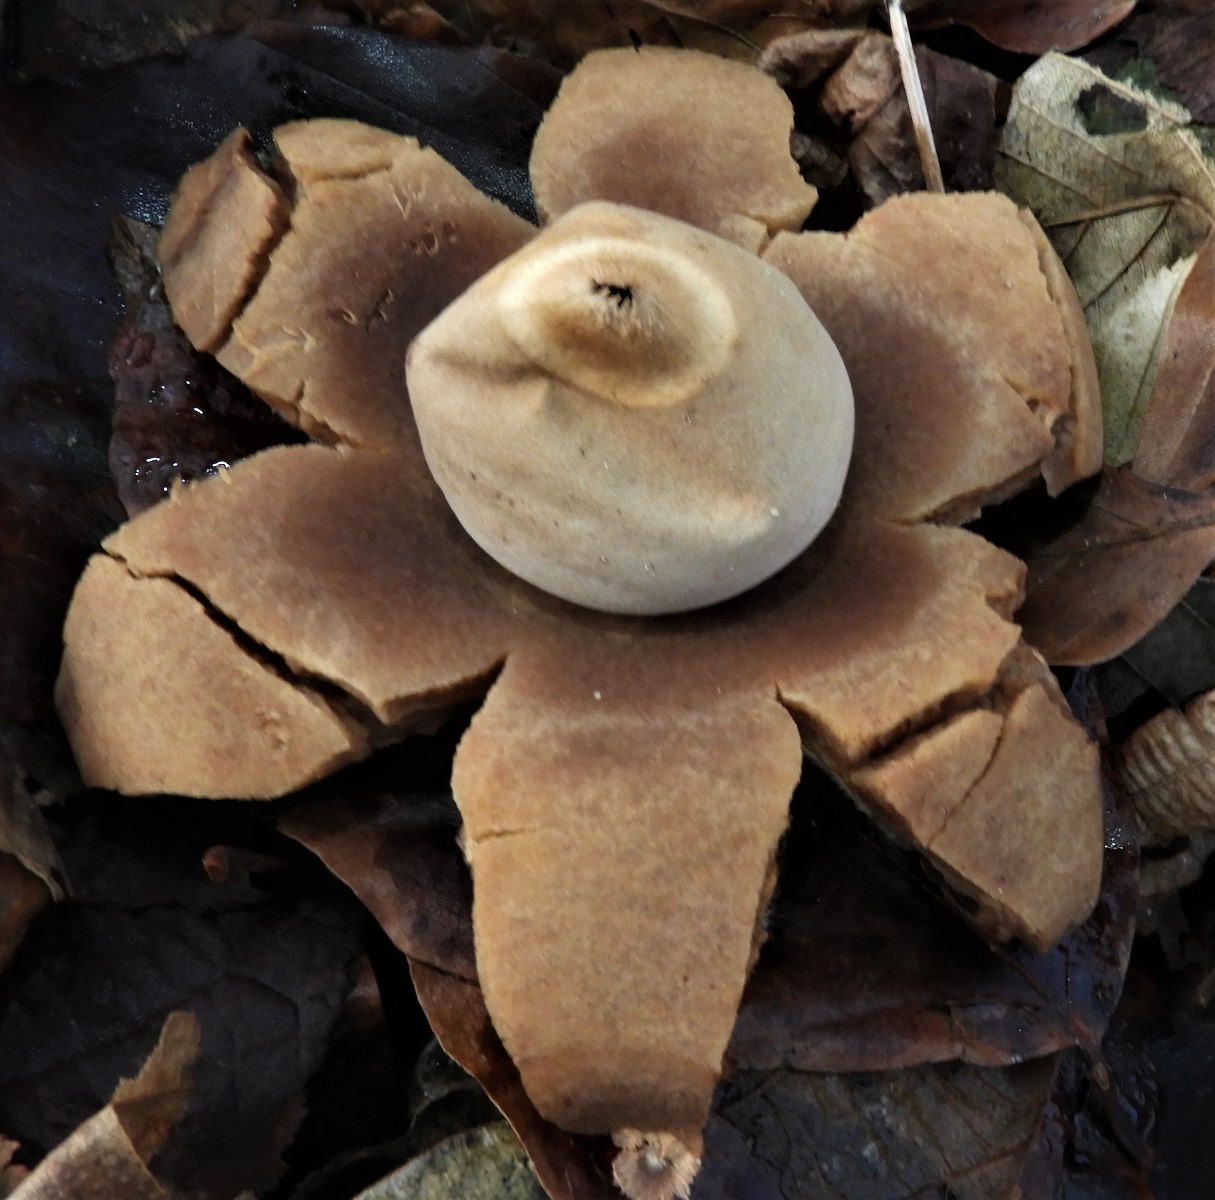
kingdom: Fungi
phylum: Basidiomycota
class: Agaricomycetes
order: Geastrales
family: Geastraceae
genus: Geastrum
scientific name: Geastrum michelianum
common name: kødet stjernebold
